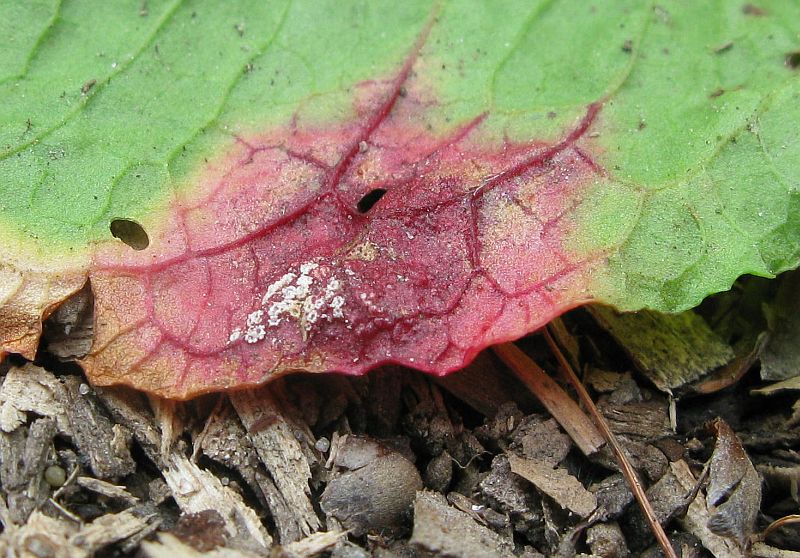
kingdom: Fungi
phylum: Basidiomycota
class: Pucciniomycetes
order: Pucciniales
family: Pucciniaceae
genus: Puccinia
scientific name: Puccinia phragmitis
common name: tagrør-tvecellerust
